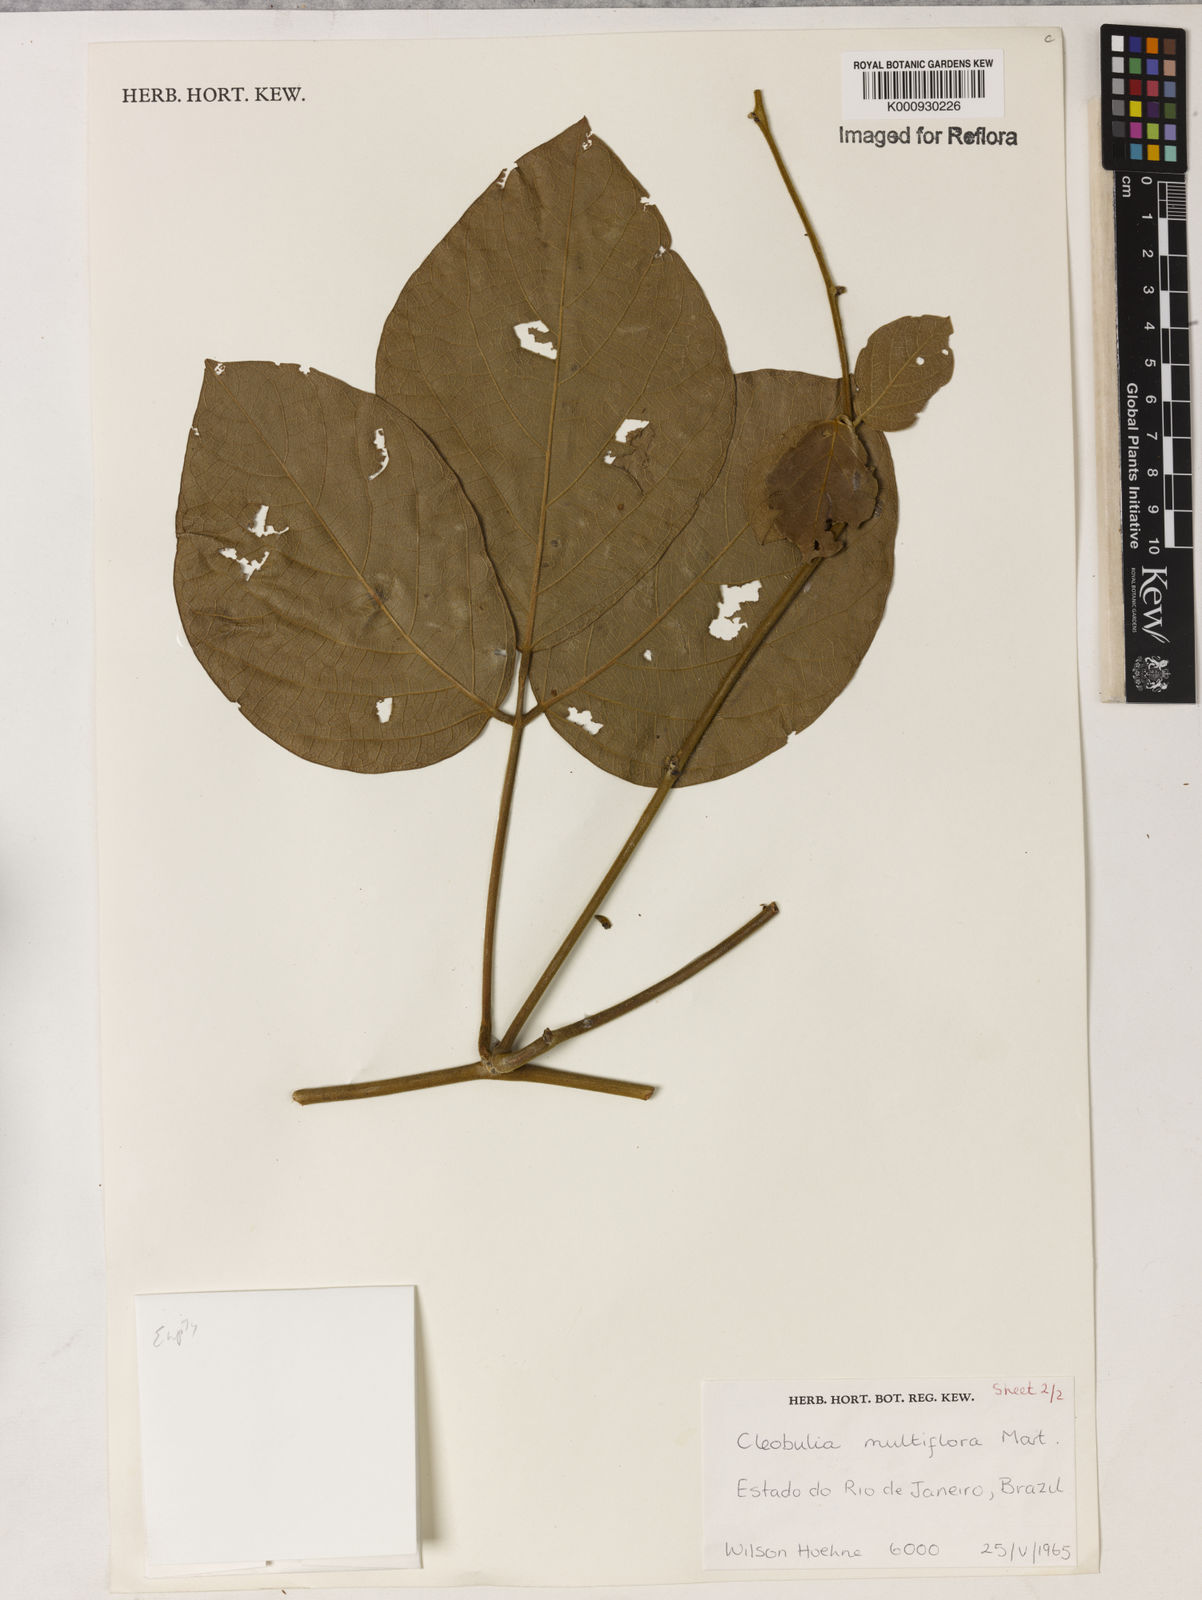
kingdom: Plantae
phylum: Tracheophyta
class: Magnoliopsida
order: Fabales
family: Fabaceae
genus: Cleobulia
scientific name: Cleobulia coccinea
